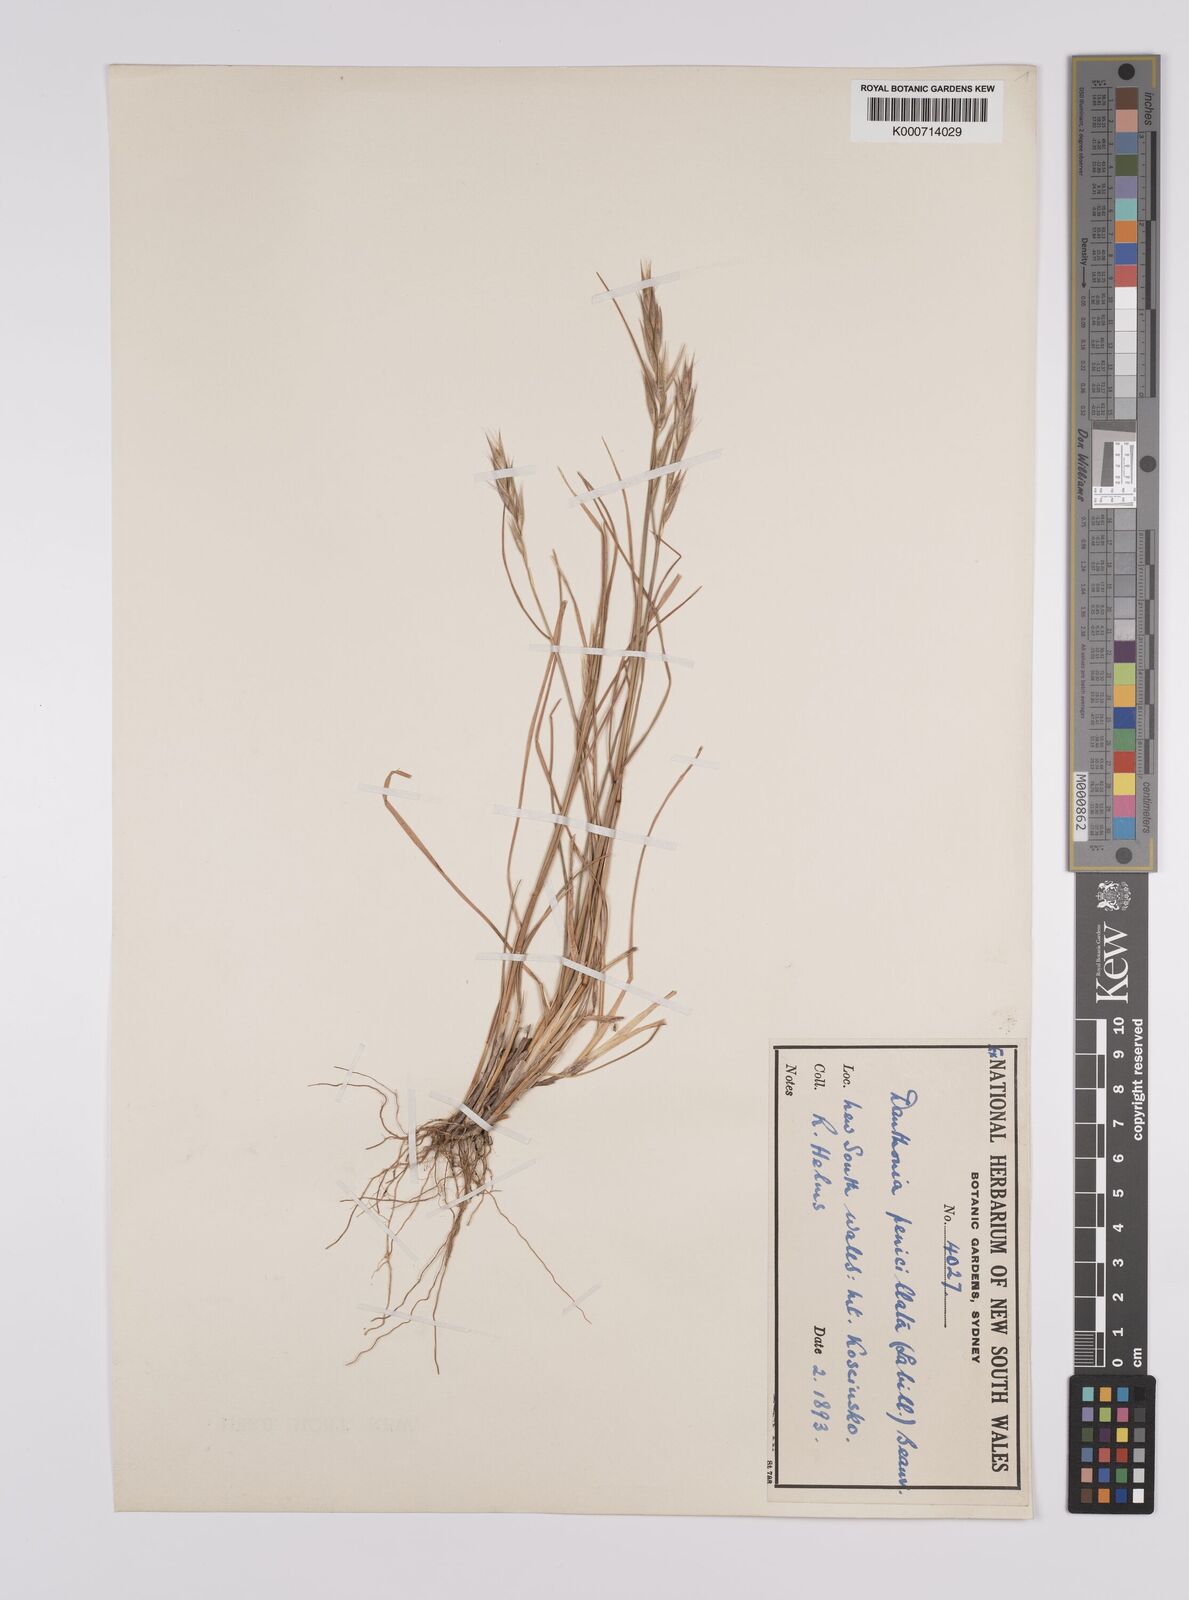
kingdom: Plantae
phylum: Tracheophyta
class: Liliopsida
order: Poales
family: Poaceae
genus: Rytidosperma
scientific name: Rytidosperma penicillatum
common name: Hairy wallaby grass
